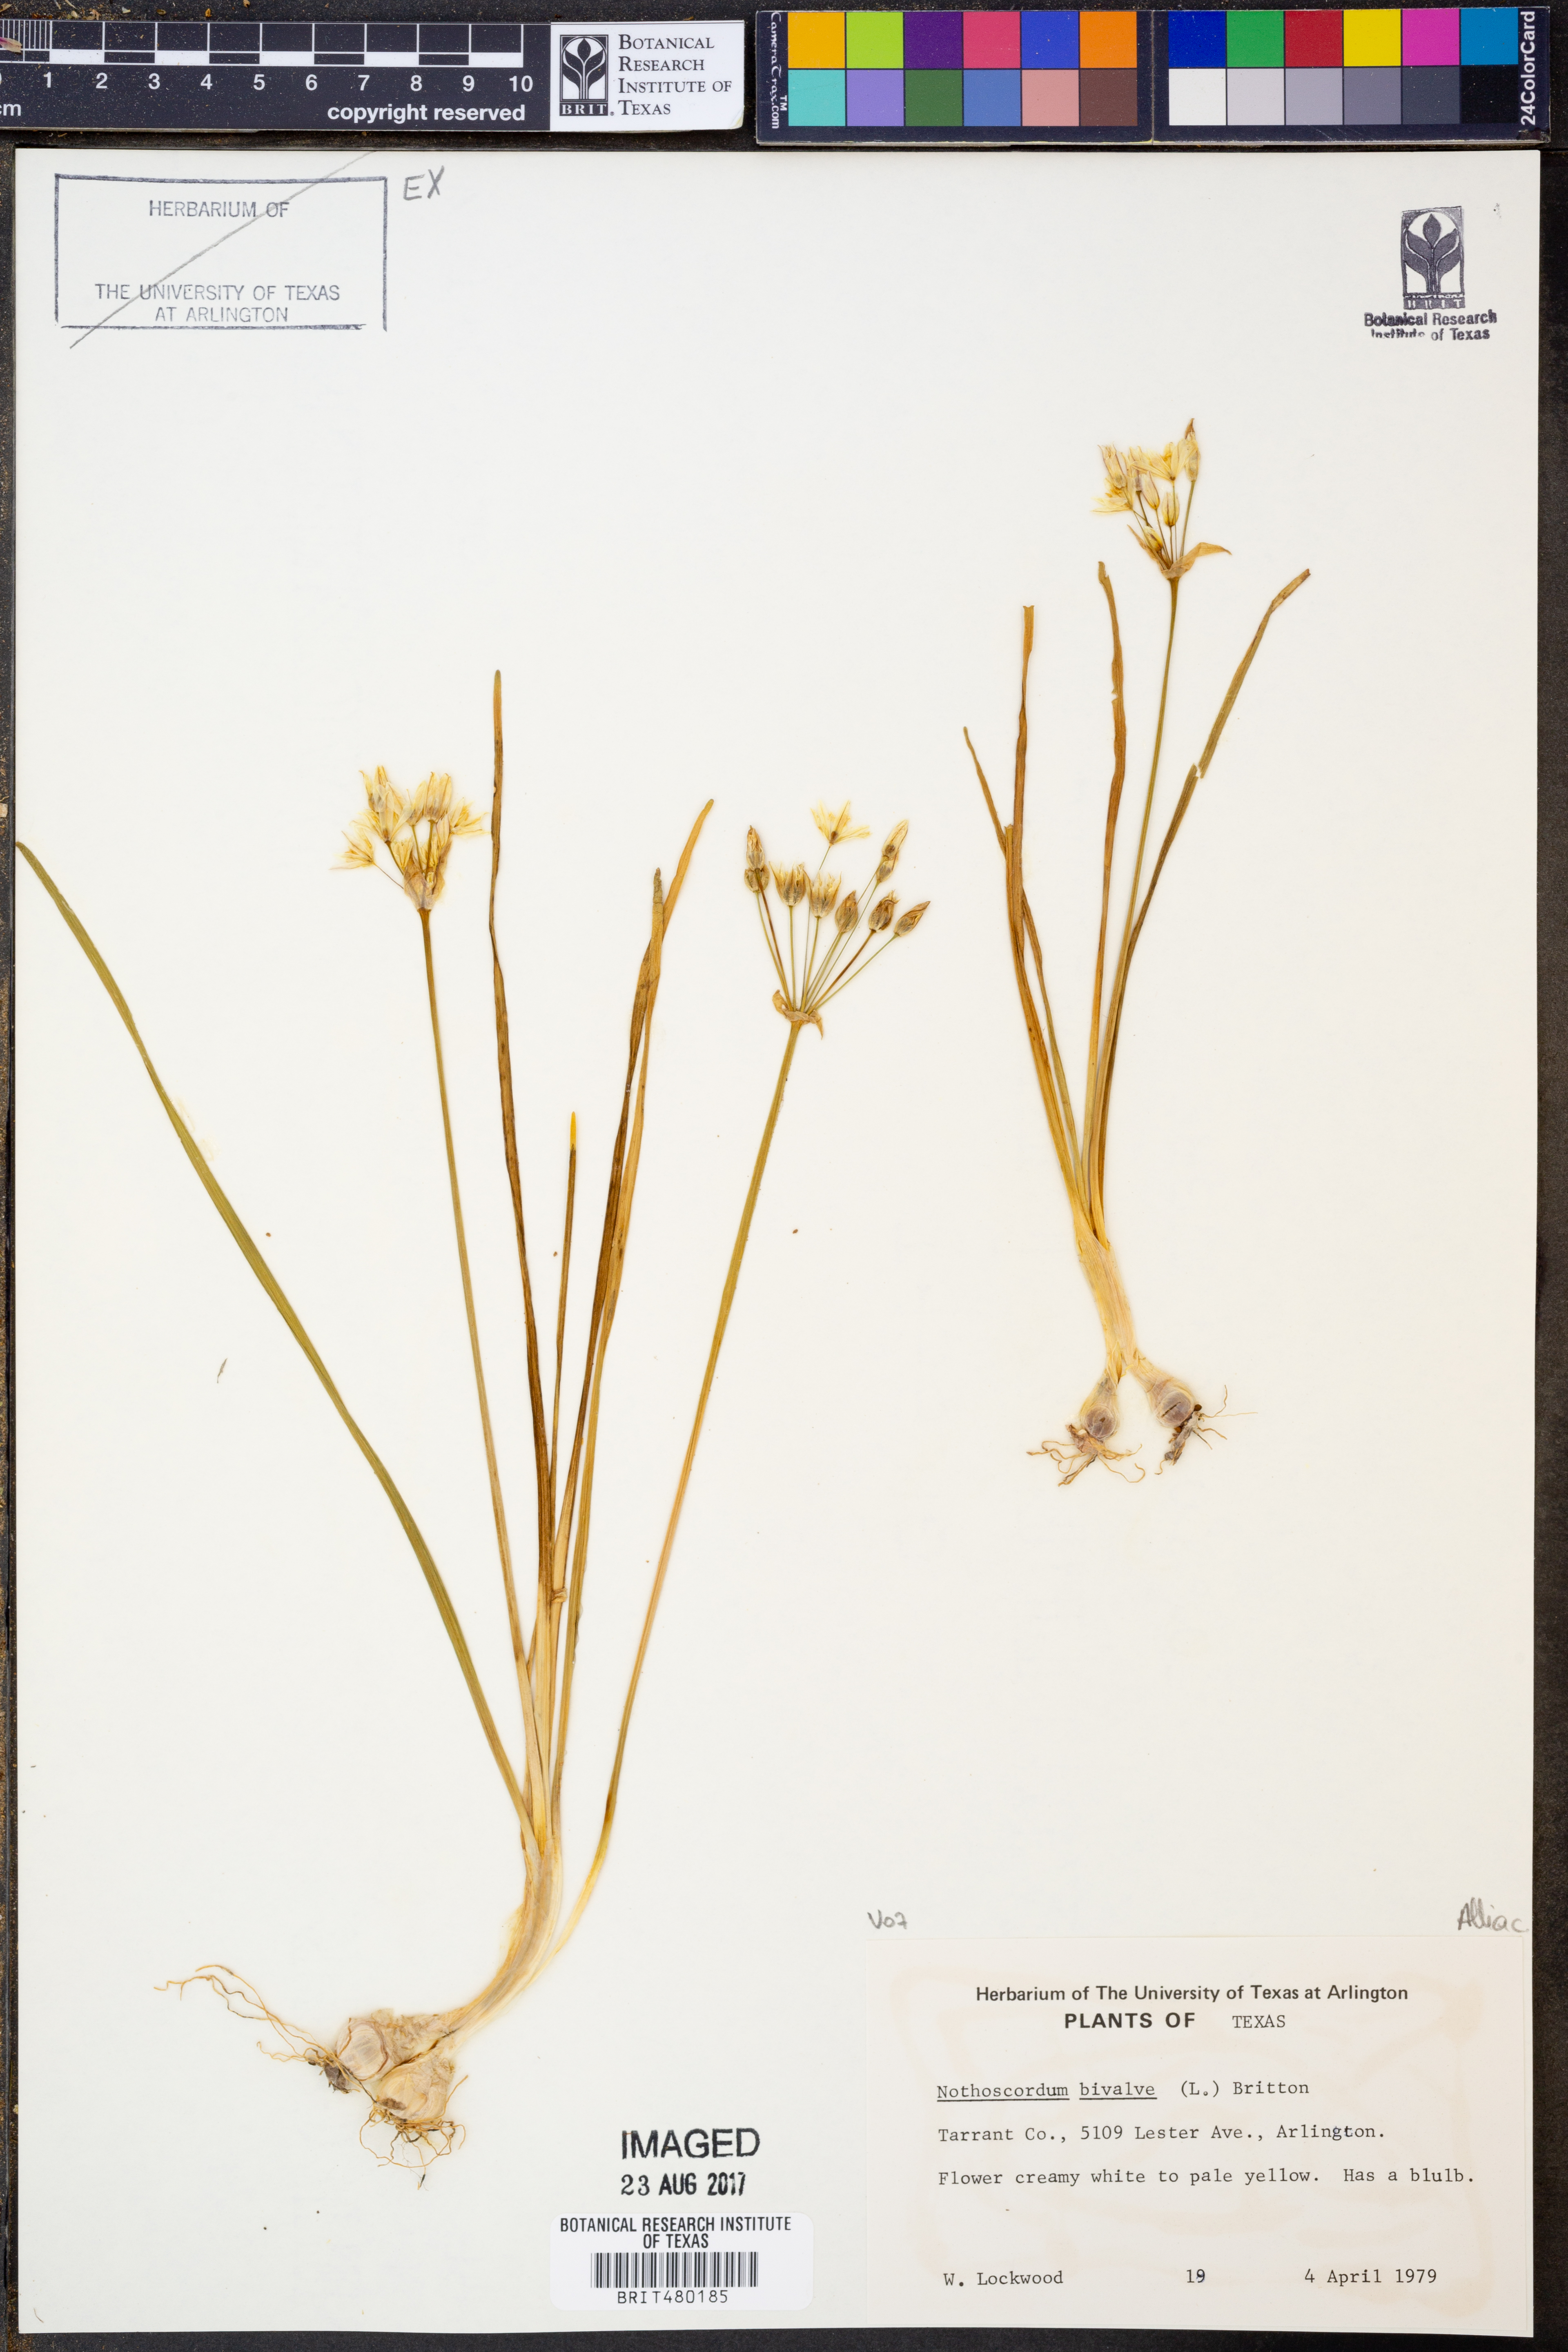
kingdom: Plantae
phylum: Tracheophyta
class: Liliopsida
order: Asparagales
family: Amaryllidaceae
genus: Nothoscordum
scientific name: Nothoscordum bivalve
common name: Crow-poison
